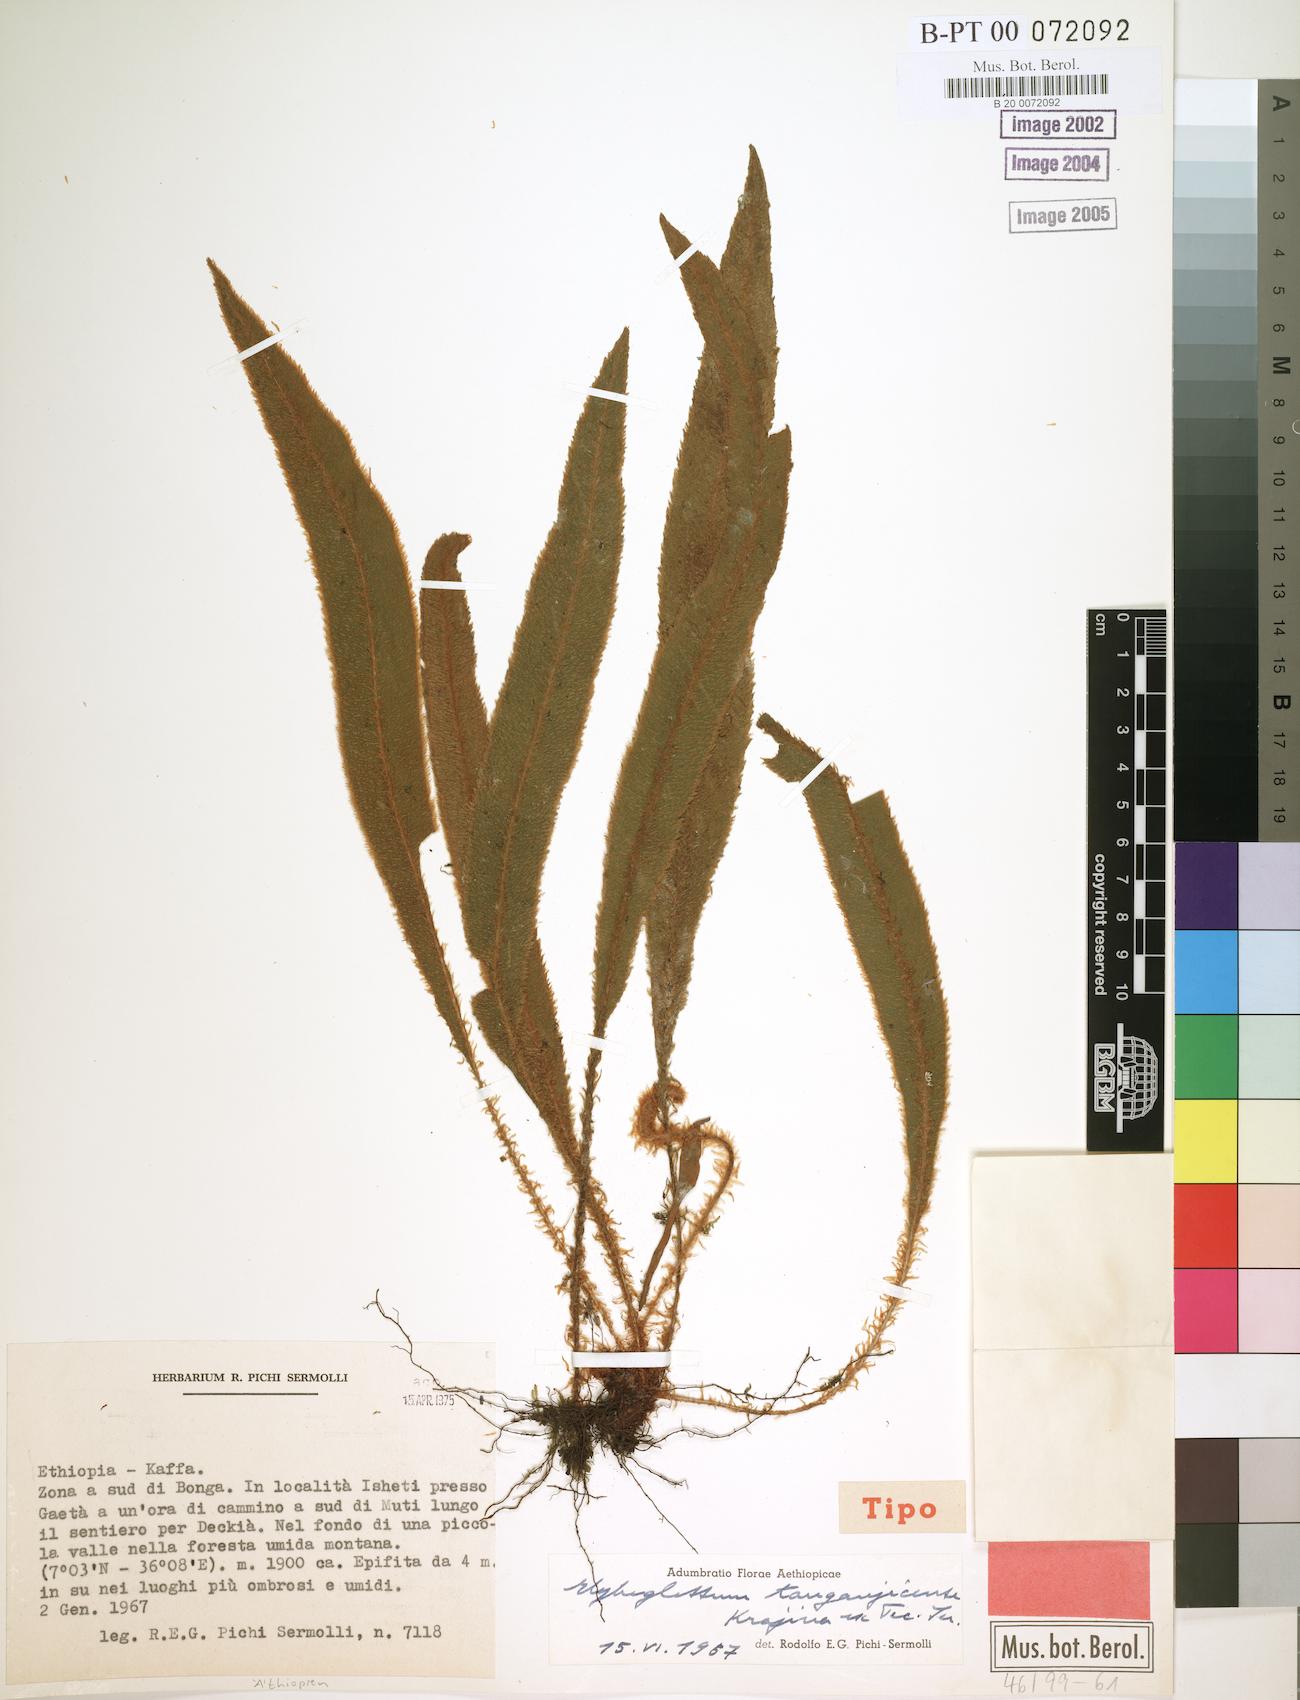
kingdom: Plantae
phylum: Tracheophyta
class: Polypodiopsida
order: Polypodiales
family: Dryopteridaceae
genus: Elaphoglossum
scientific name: Elaphoglossum deckenii
